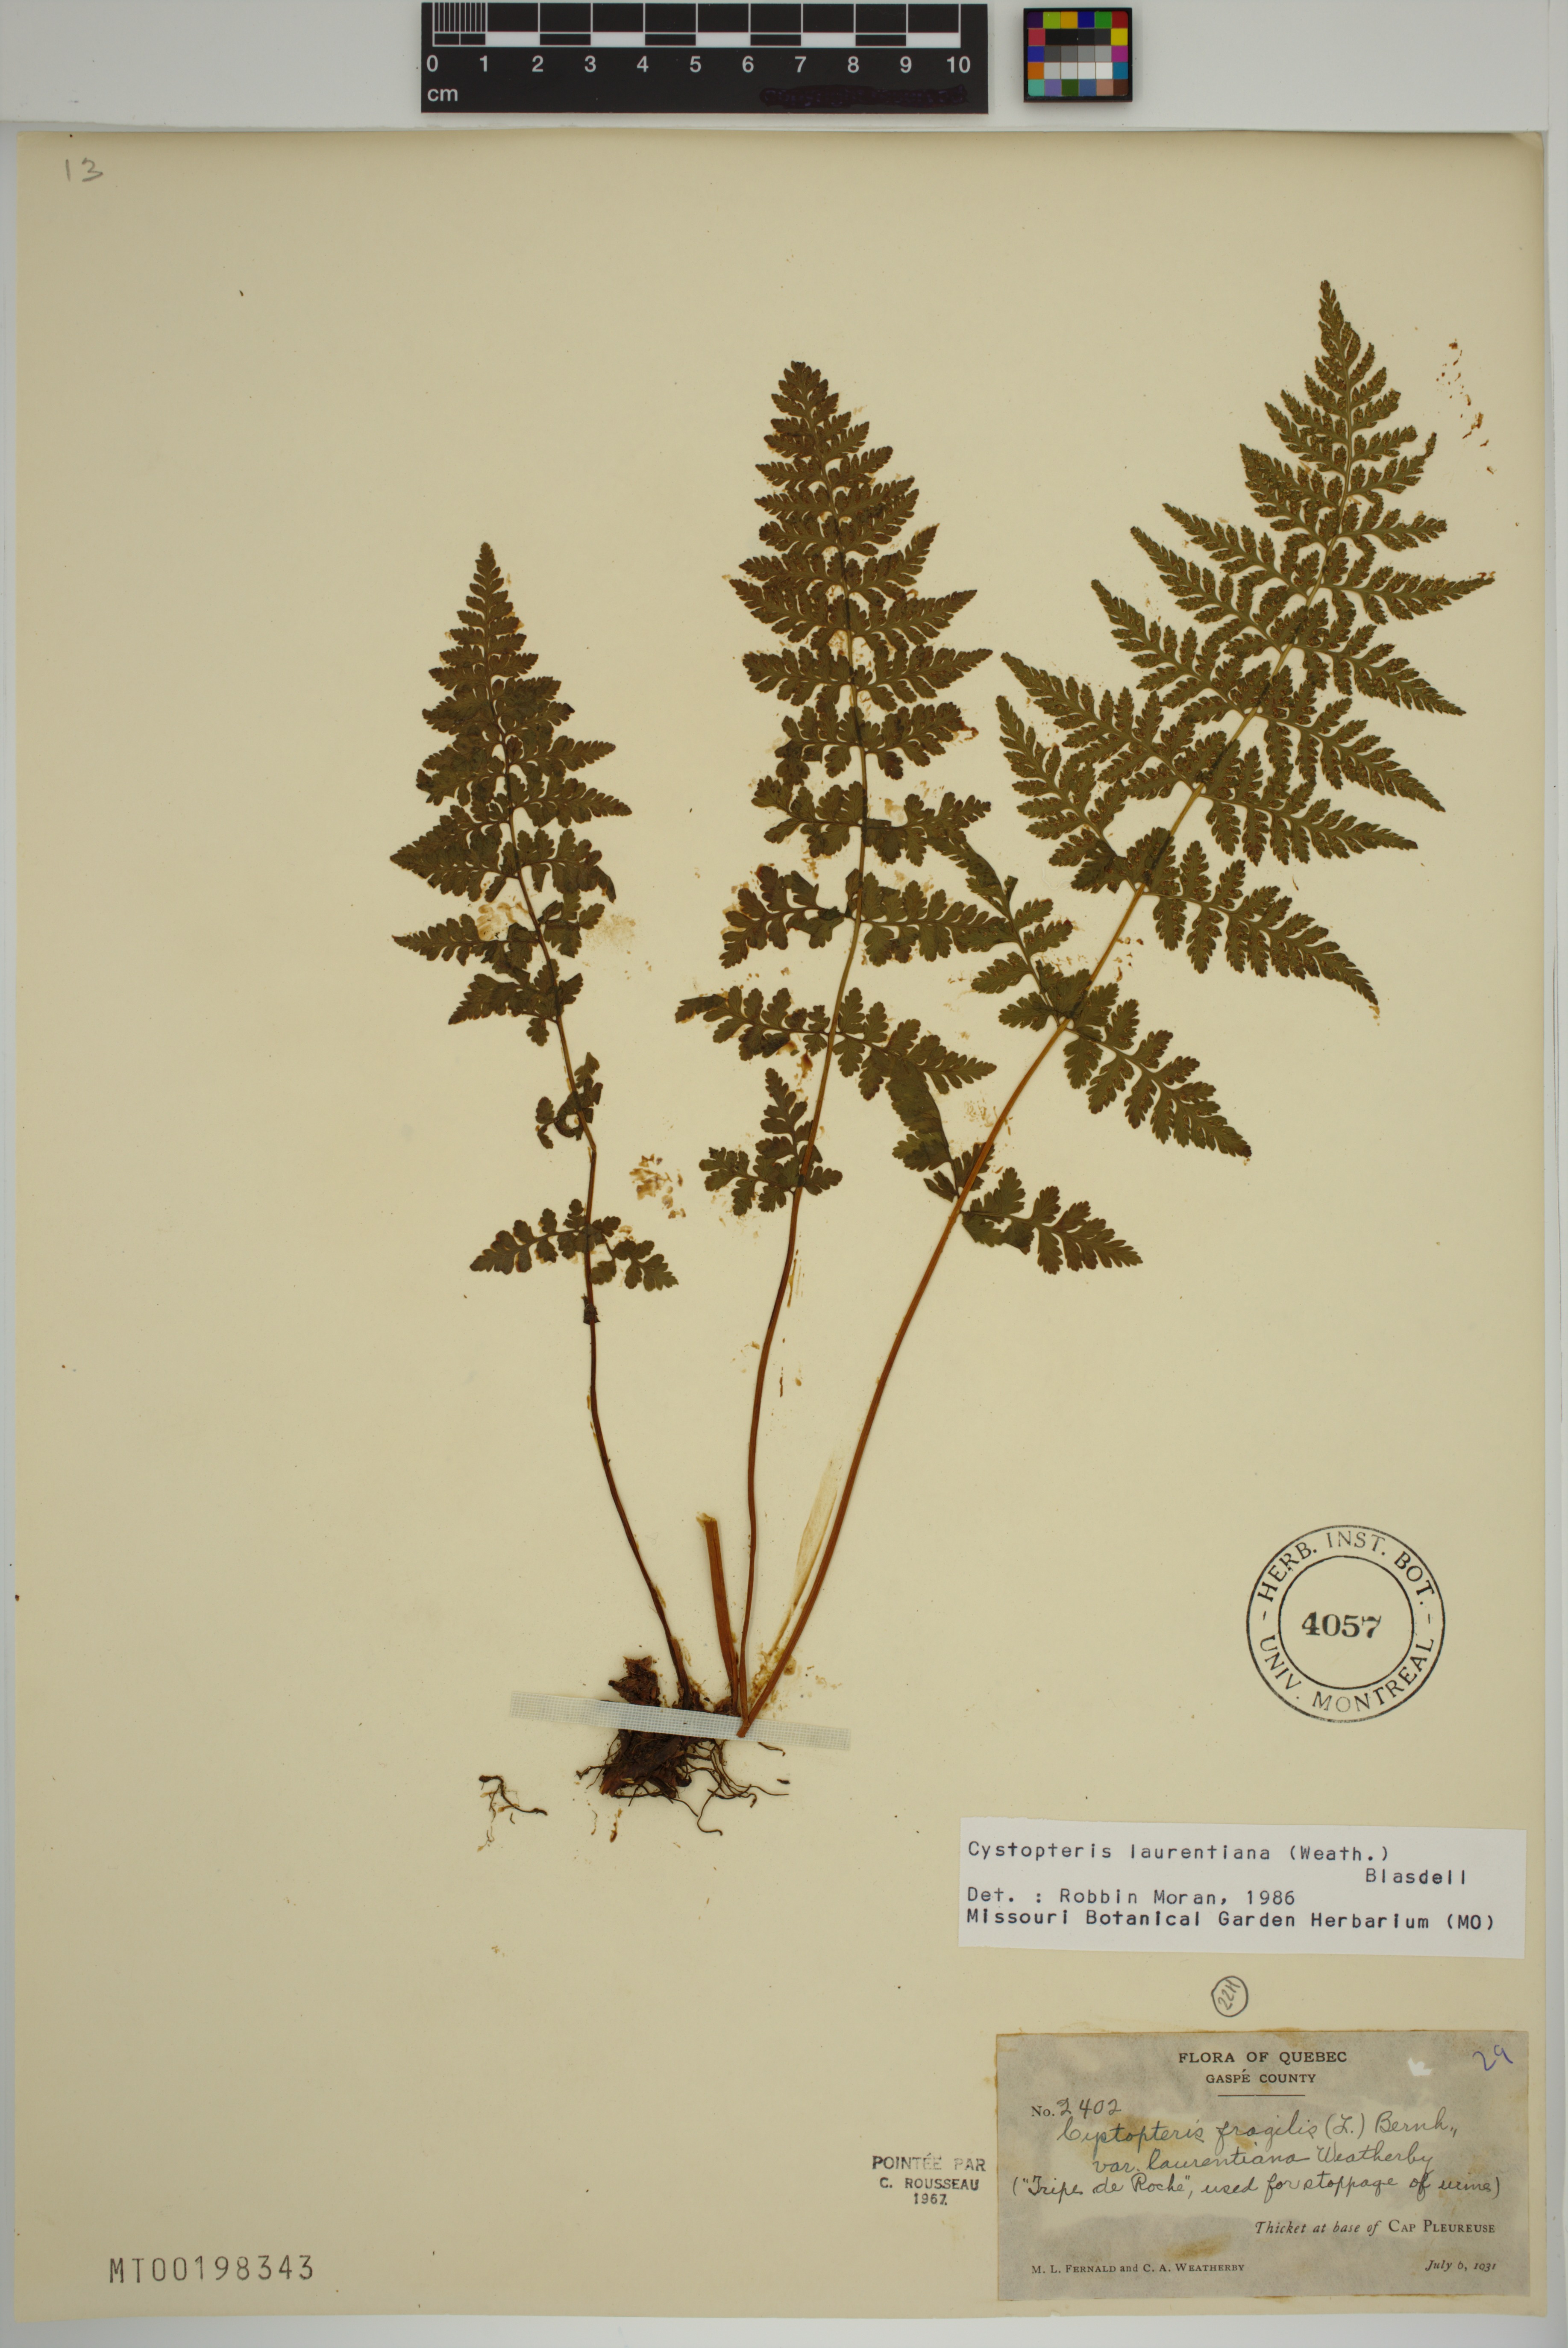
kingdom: Plantae
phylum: Tracheophyta
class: Polypodiopsida
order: Polypodiales
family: Cystopteridaceae
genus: Cystopteris
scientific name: Cystopteris laurentiana
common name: Blasdell's laurentian bladder fern
